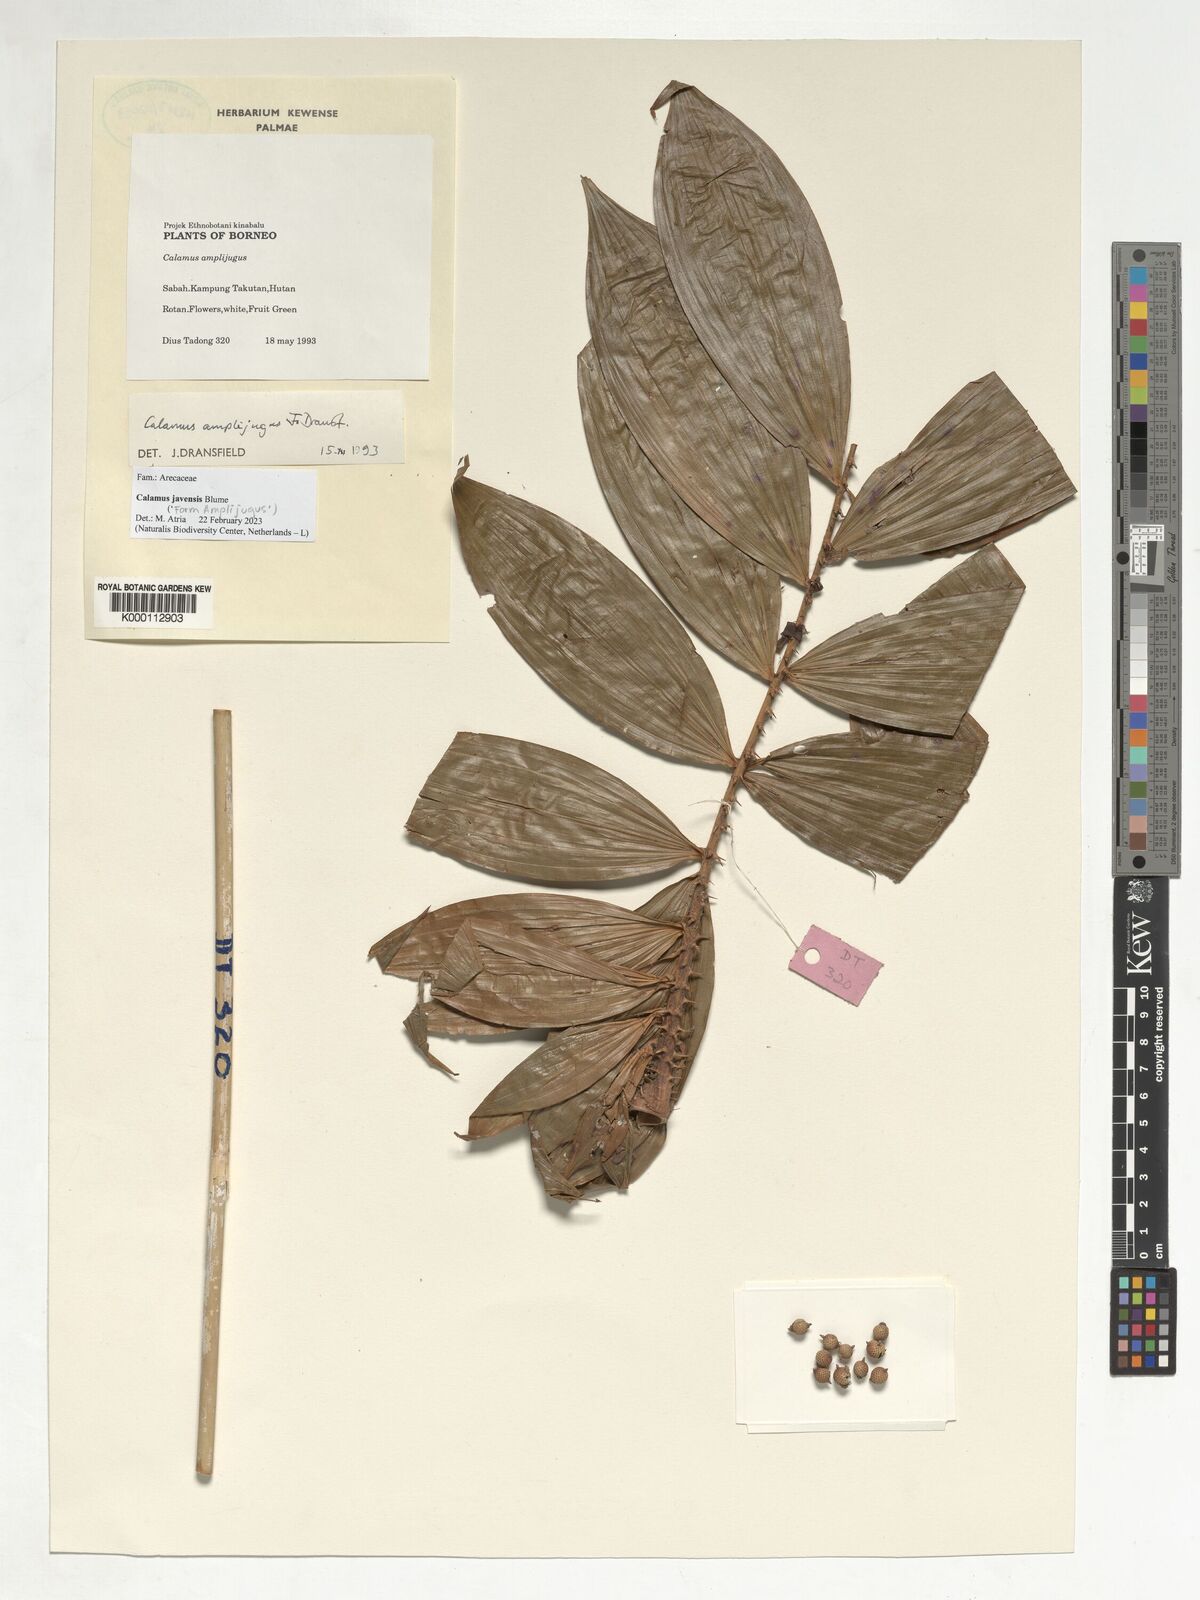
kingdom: Plantae
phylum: Tracheophyta
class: Liliopsida
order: Arecales
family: Arecaceae
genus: Calamus
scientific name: Calamus javensis
